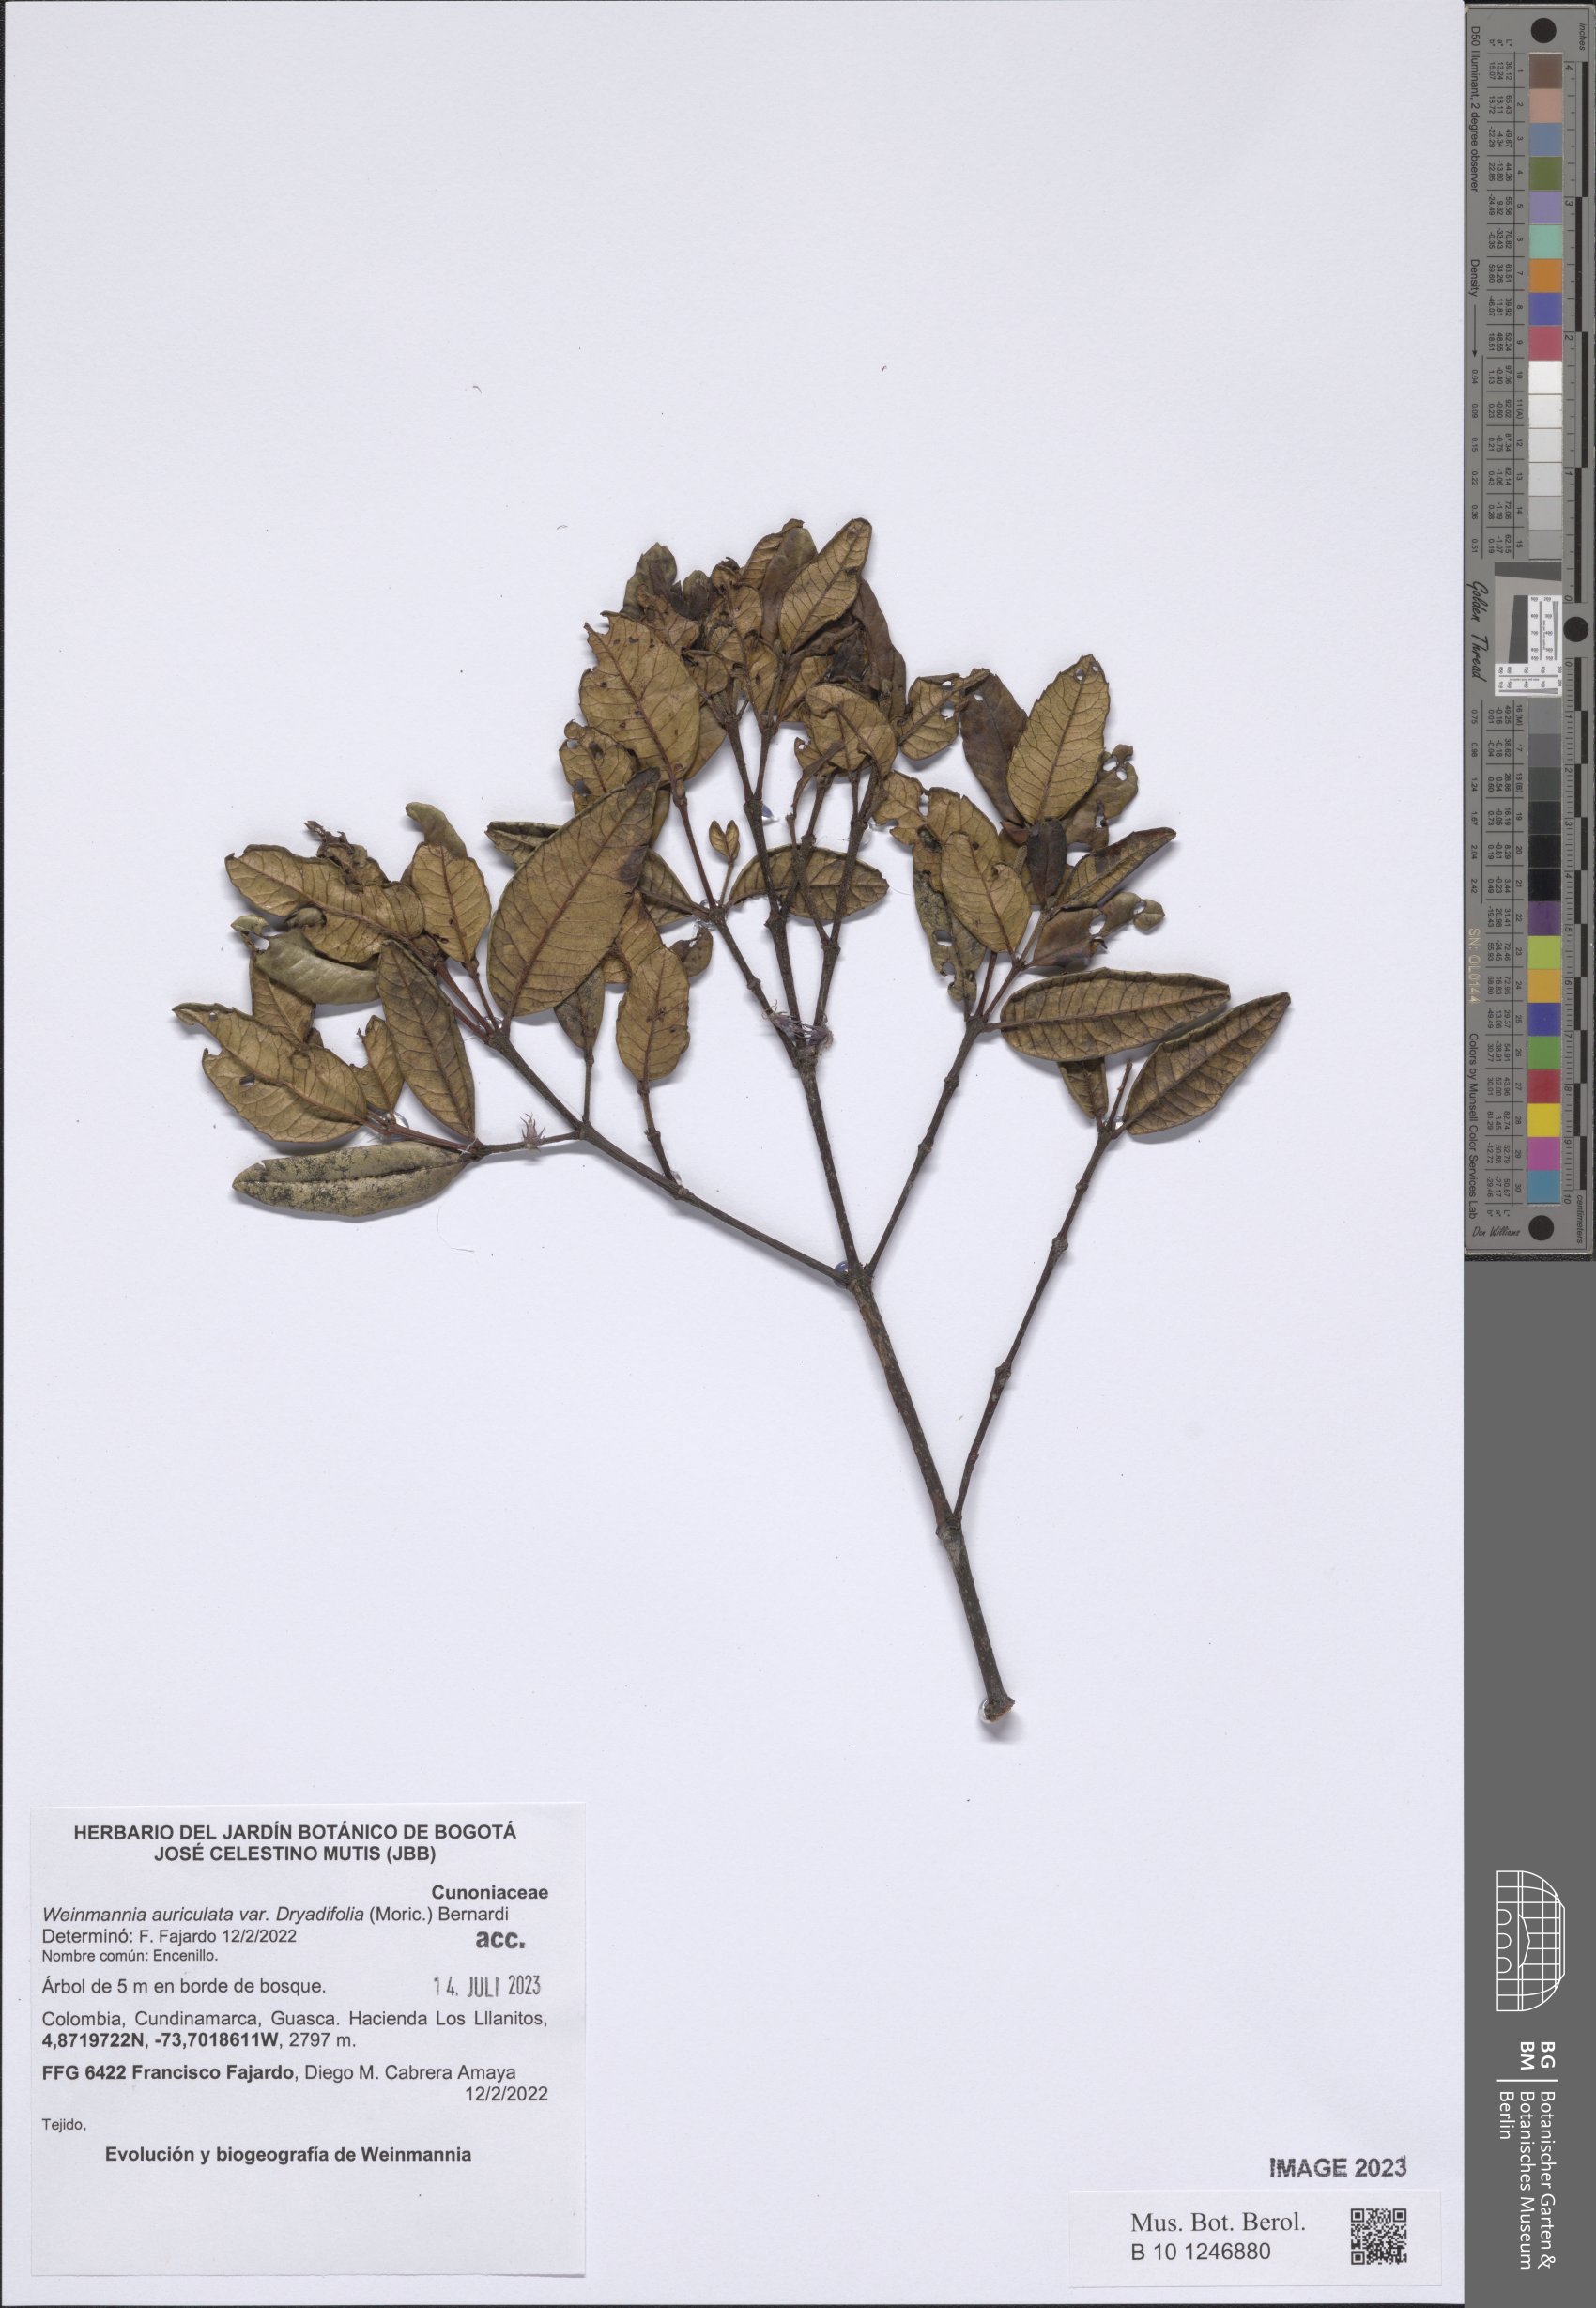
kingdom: Plantae
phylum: Tracheophyta
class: Magnoliopsida
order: Oxalidales
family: Cunoniaceae
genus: Weinmannia
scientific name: Weinmannia auriculata
